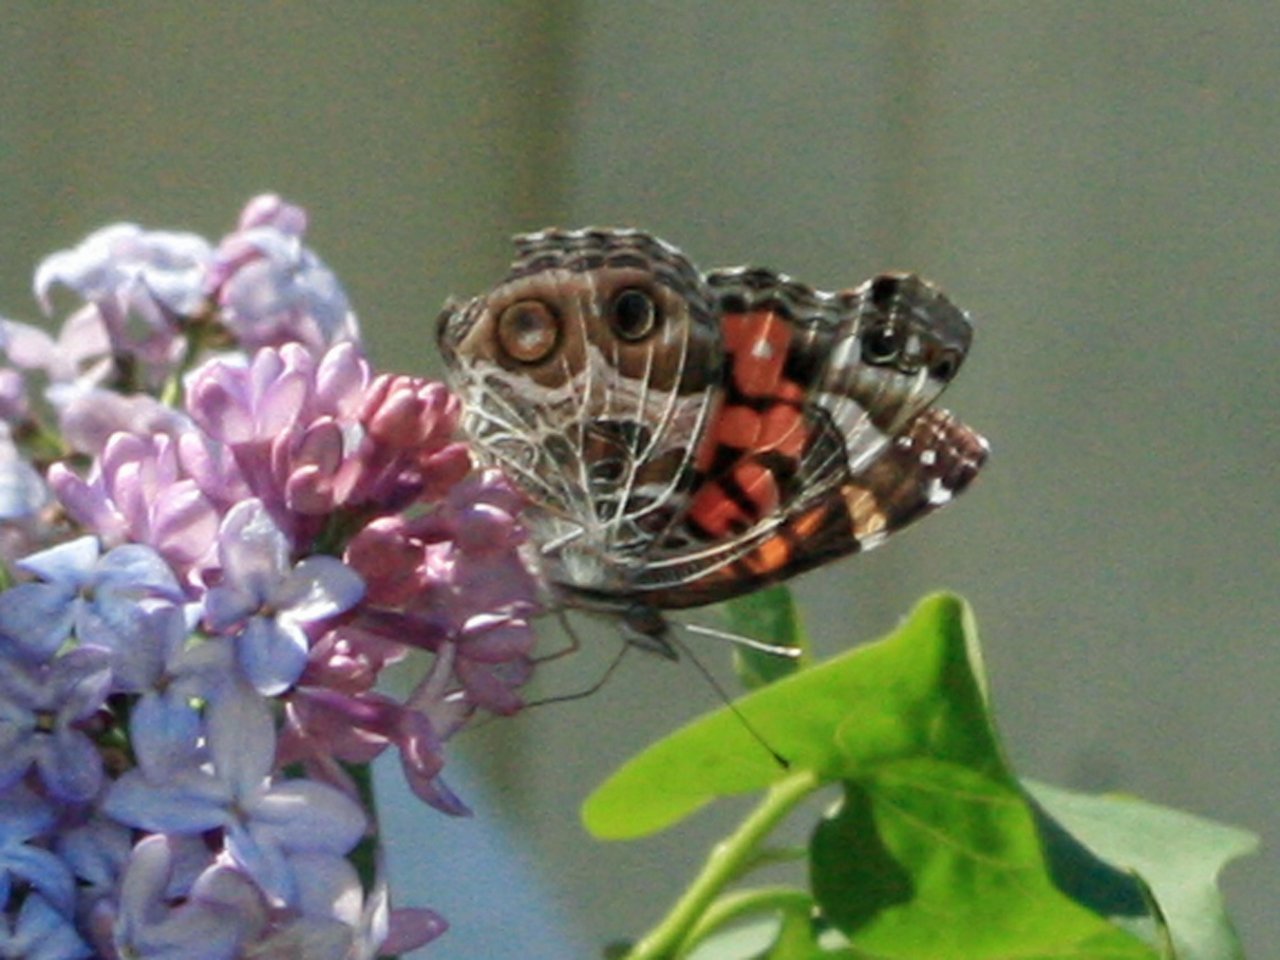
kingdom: Animalia
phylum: Arthropoda
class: Insecta
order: Lepidoptera
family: Nymphalidae
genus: Vanessa
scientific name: Vanessa virginiensis
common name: American Lady
